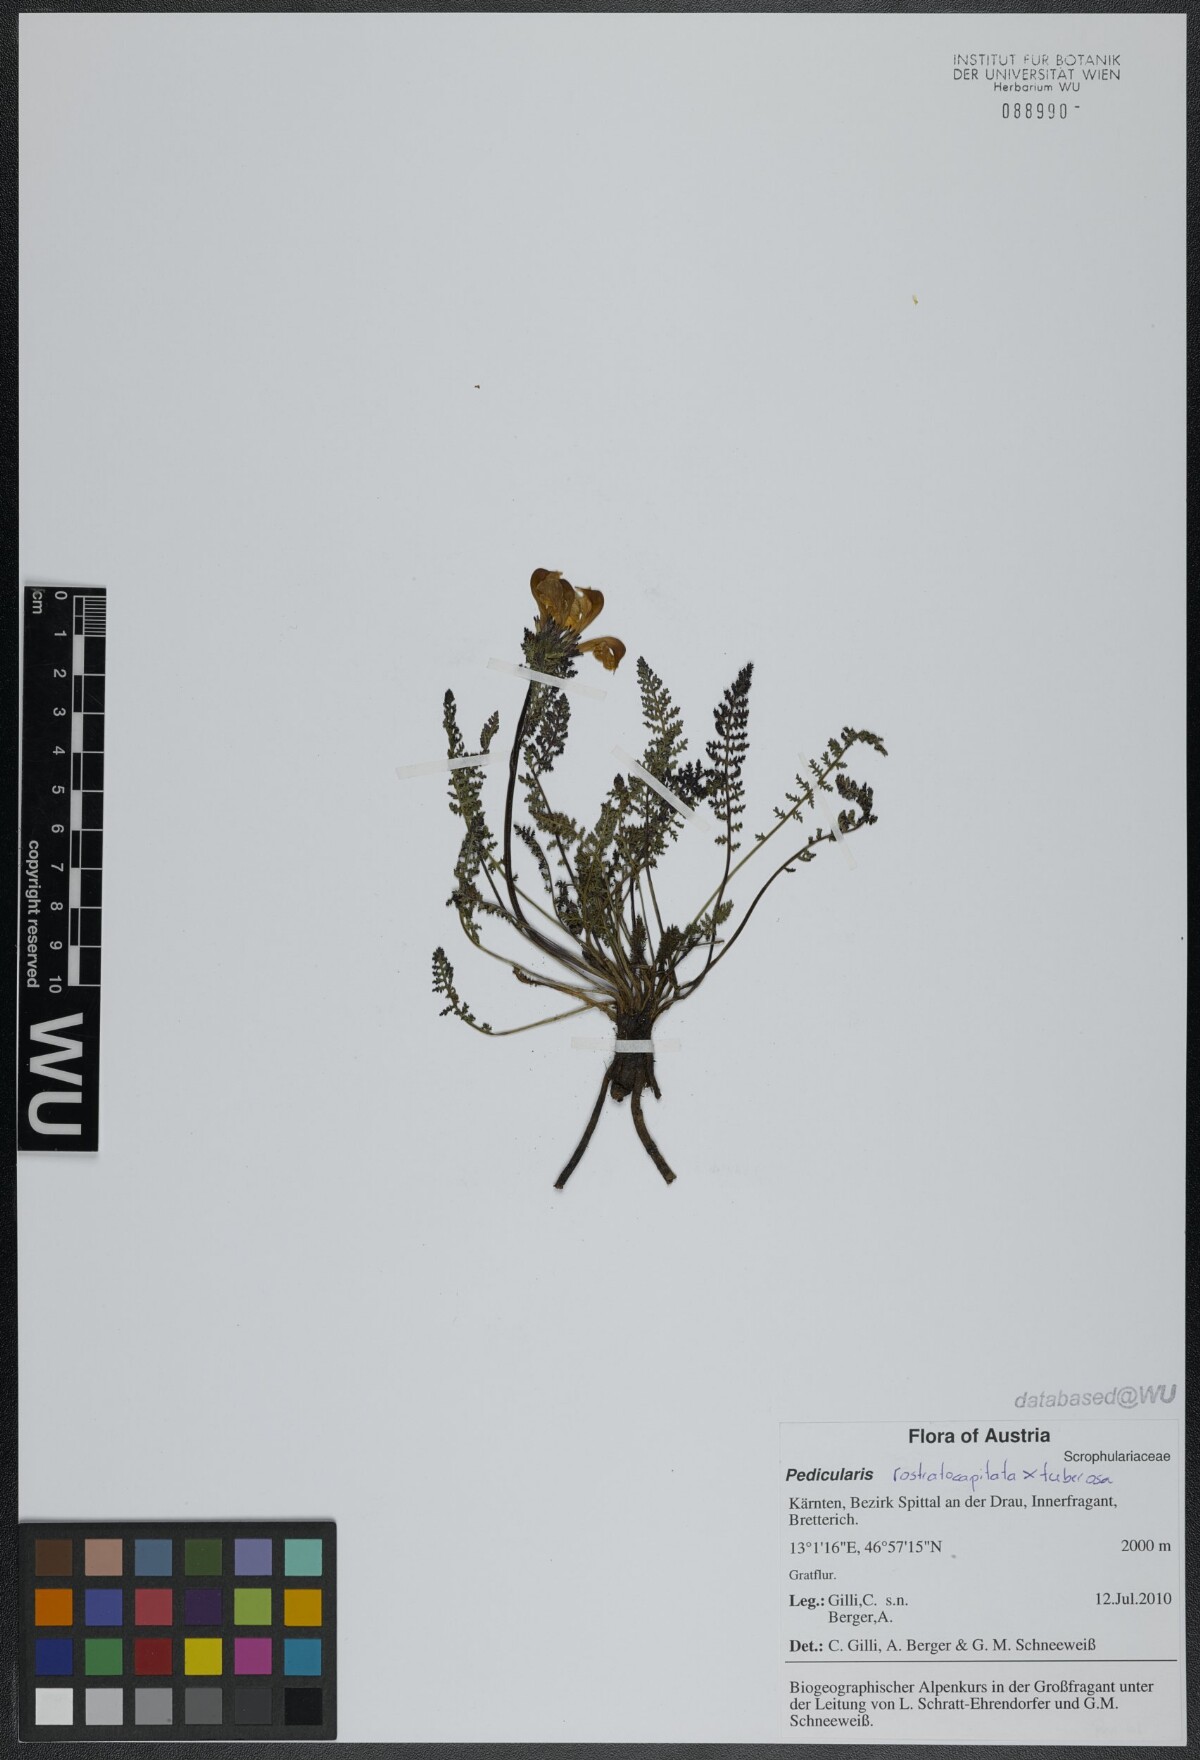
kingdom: Plantae
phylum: Tracheophyta
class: Magnoliopsida
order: Lamiales
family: Orobanchaceae
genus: Pedicularis
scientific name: Pedicularis
